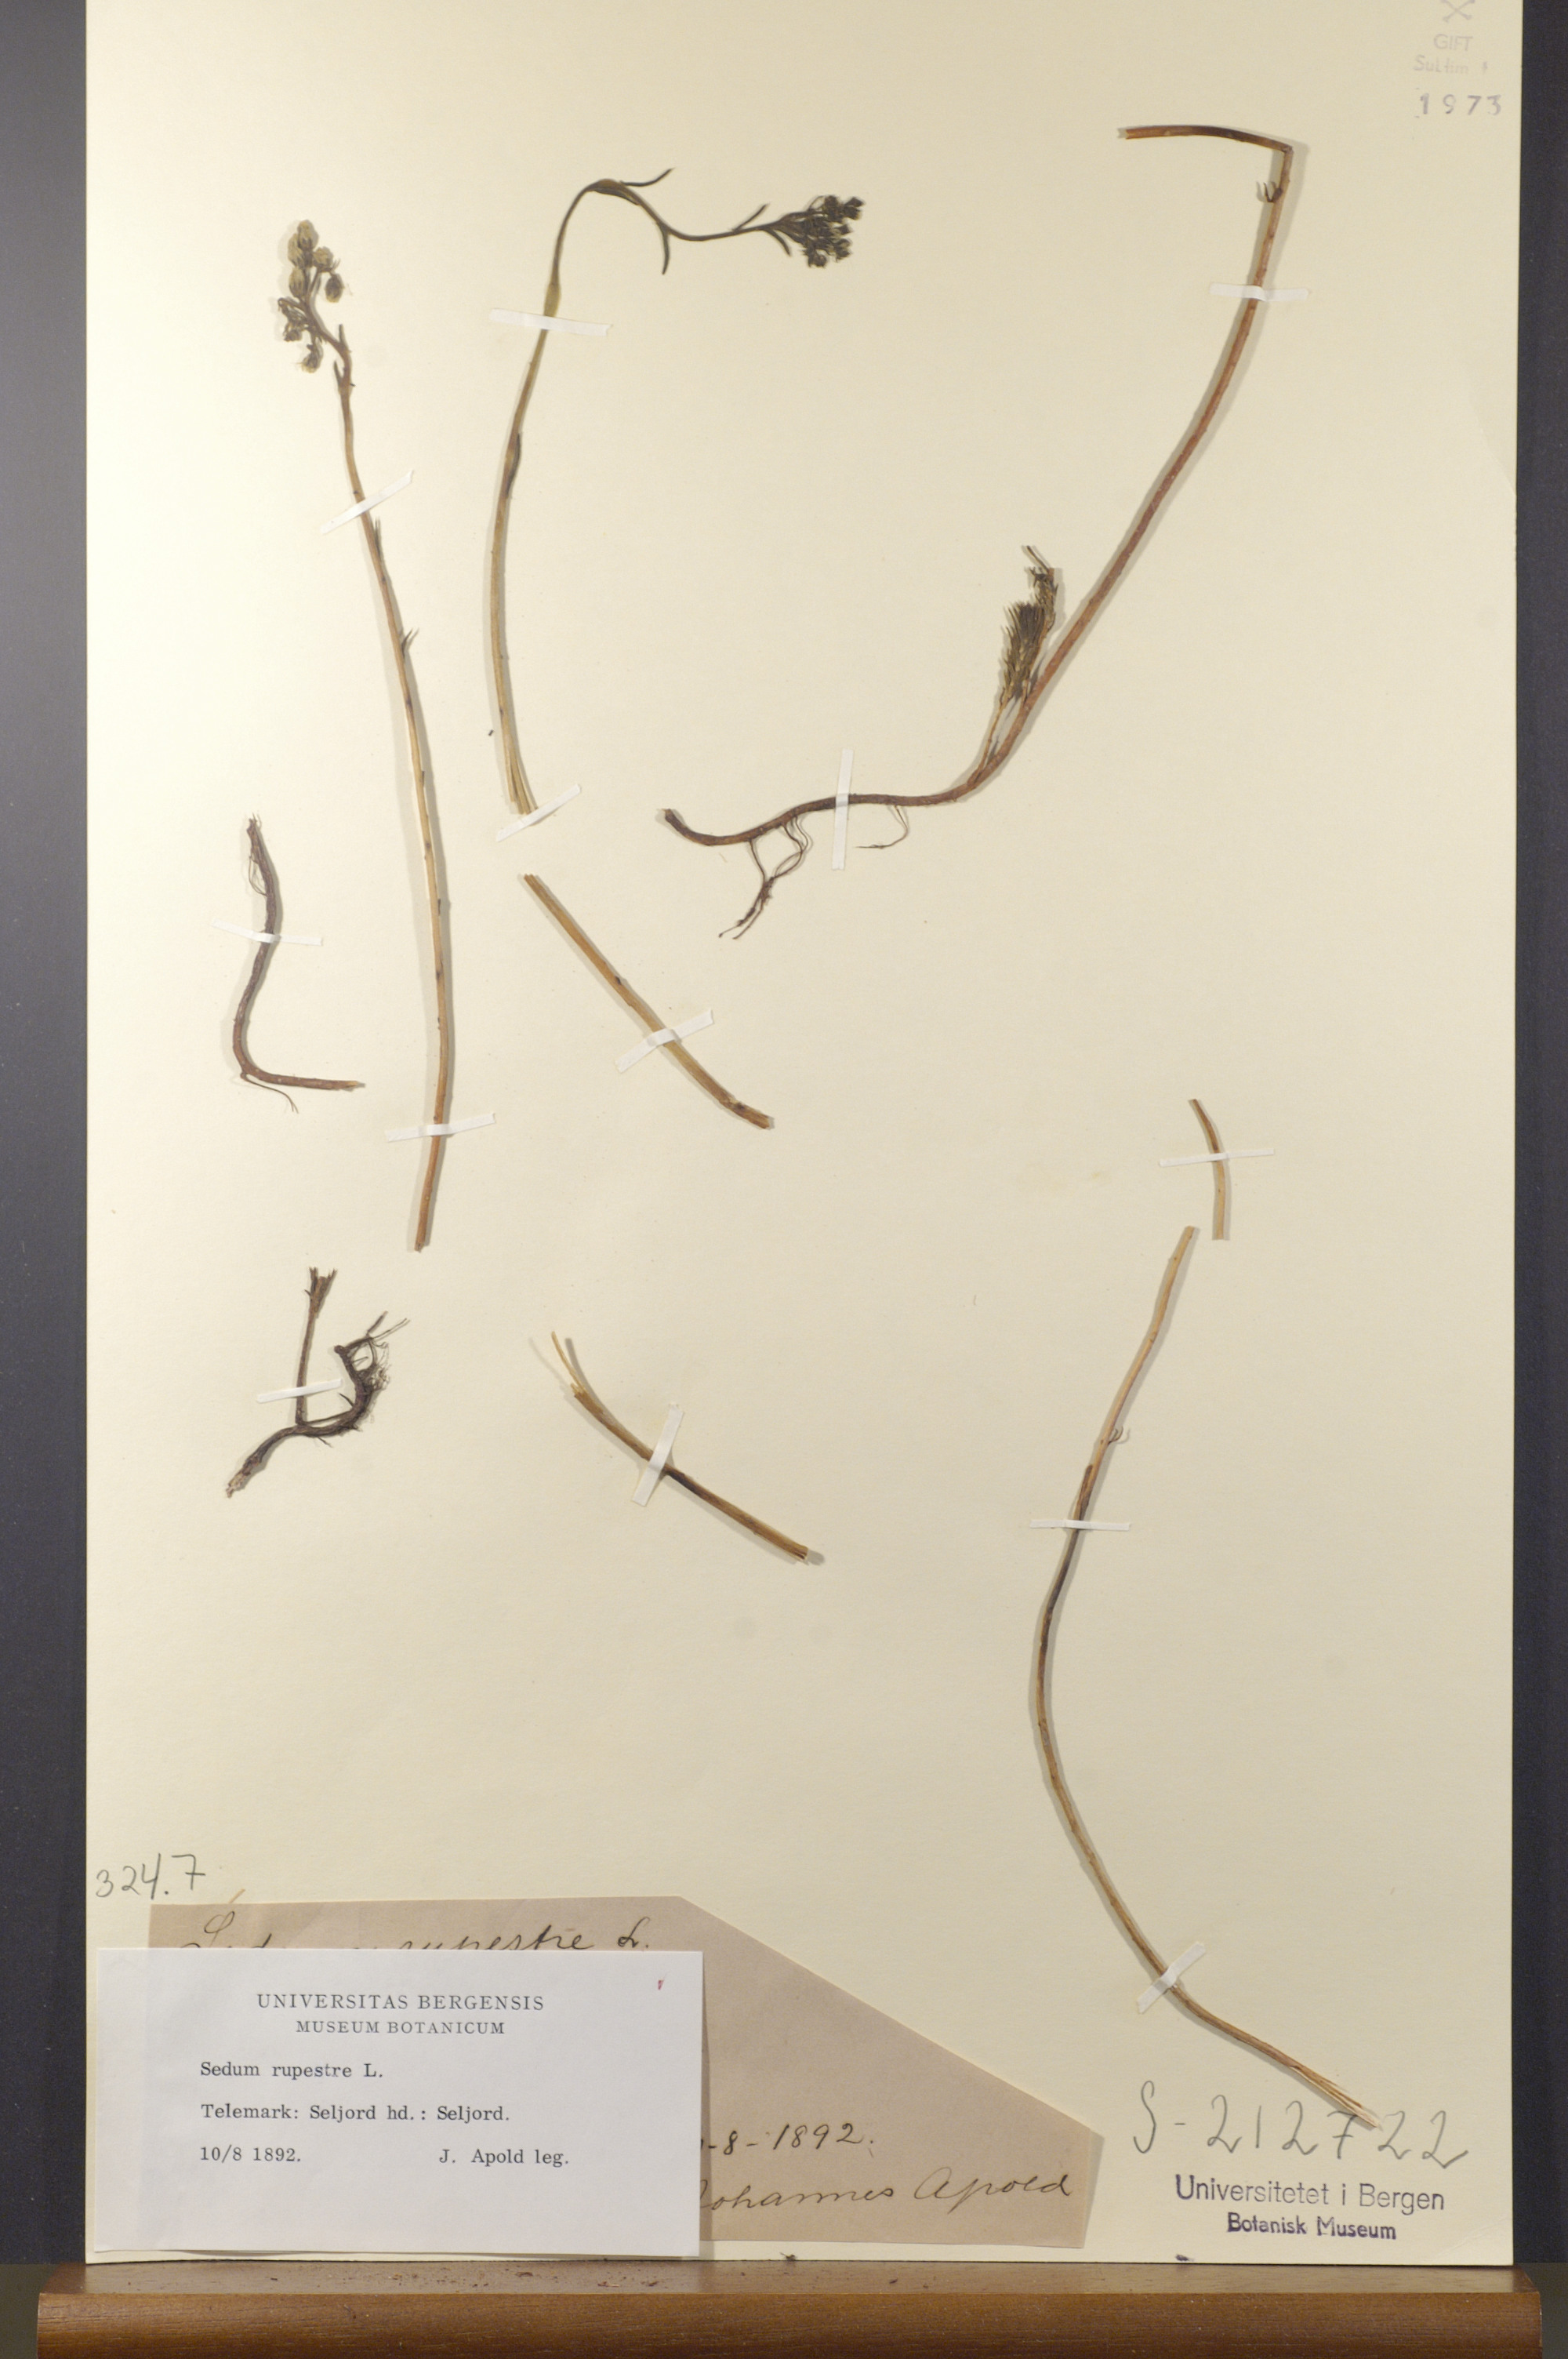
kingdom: Plantae
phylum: Tracheophyta
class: Magnoliopsida
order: Saxifragales
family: Crassulaceae
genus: Petrosedum
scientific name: Petrosedum rupestre
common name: Jenny's stonecrop
